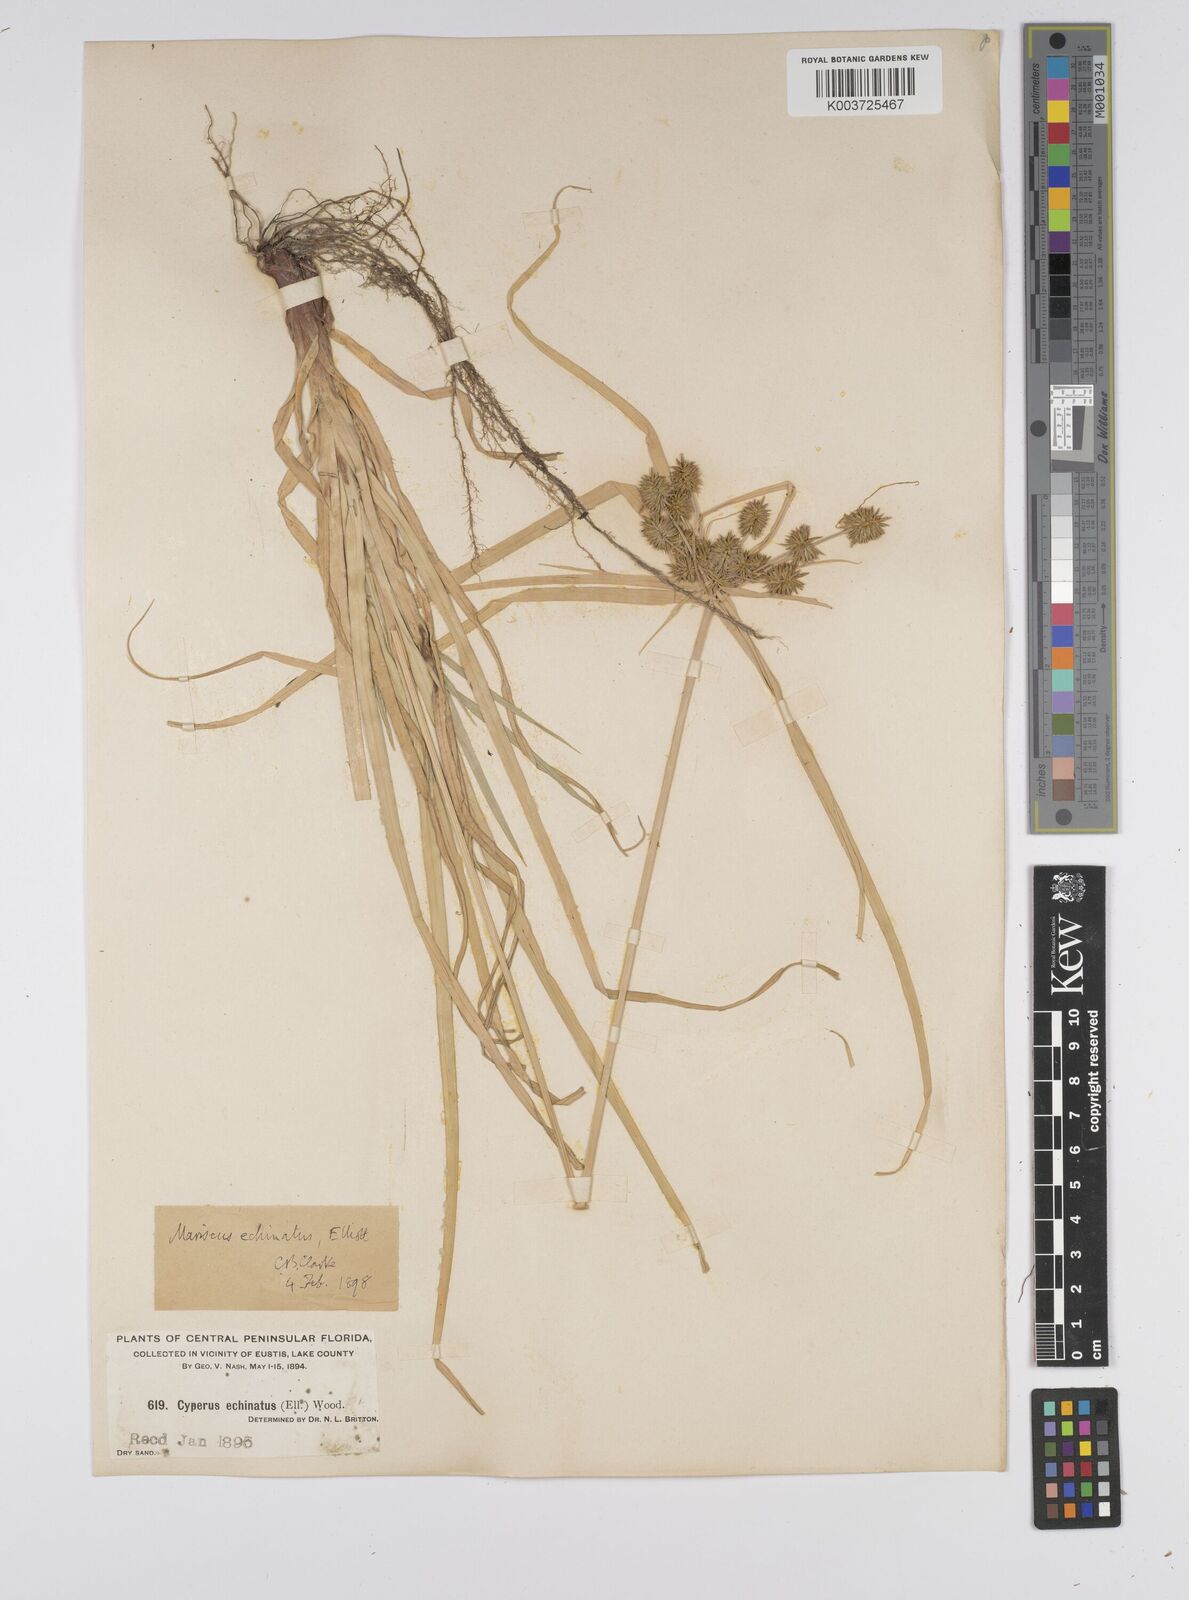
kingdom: Plantae
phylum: Tracheophyta
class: Liliopsida
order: Poales
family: Cyperaceae
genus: Cyperus
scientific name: Cyperus luzulae
